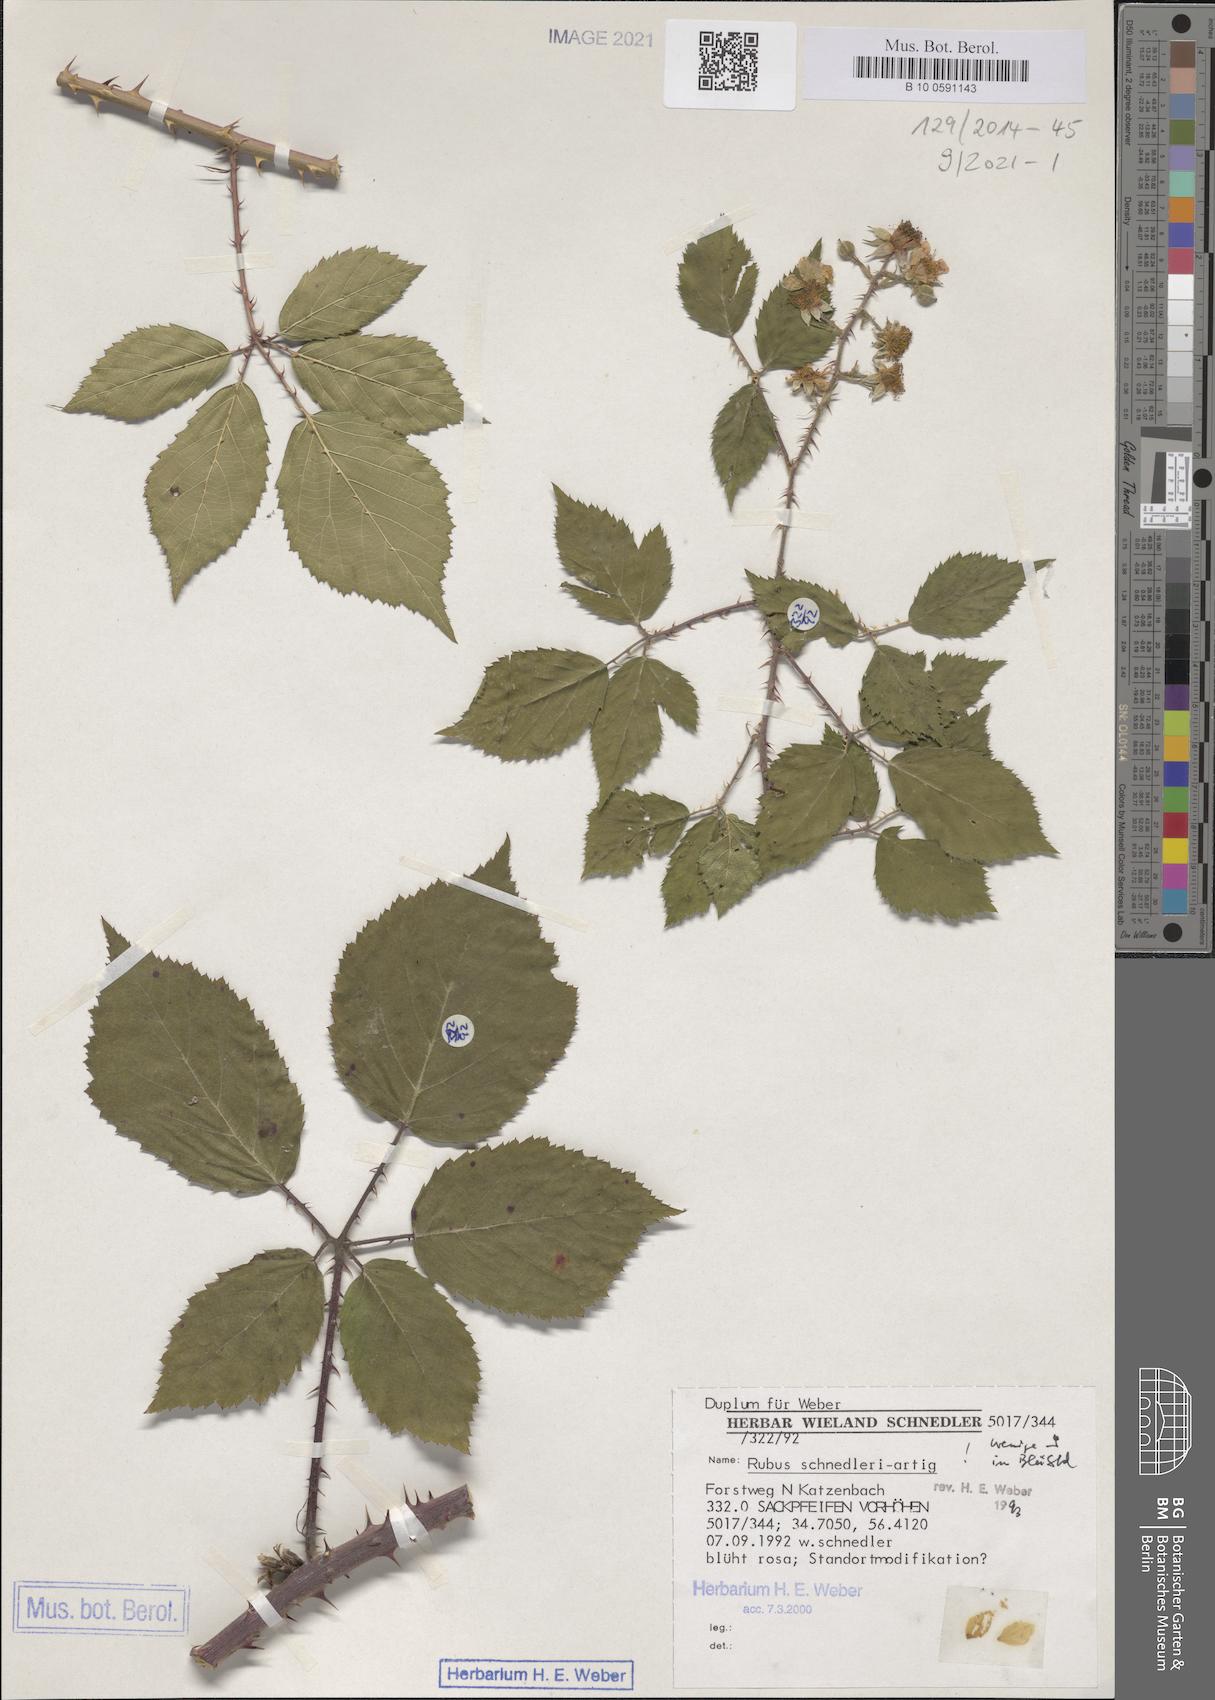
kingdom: Plantae
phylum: Tracheophyta
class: Magnoliopsida
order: Rosales
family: Rosaceae
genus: Rubus
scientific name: Rubus klimmekianus
